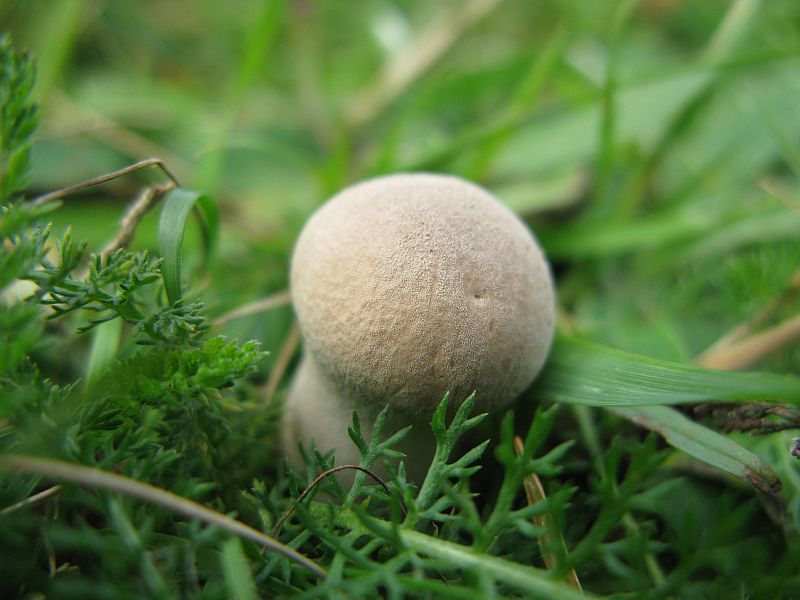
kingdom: Fungi
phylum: Basidiomycota
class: Agaricomycetes
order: Agaricales
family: Lycoperdaceae
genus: Lycoperdon
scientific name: Lycoperdon excipuliforme
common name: højstokket støvbold
